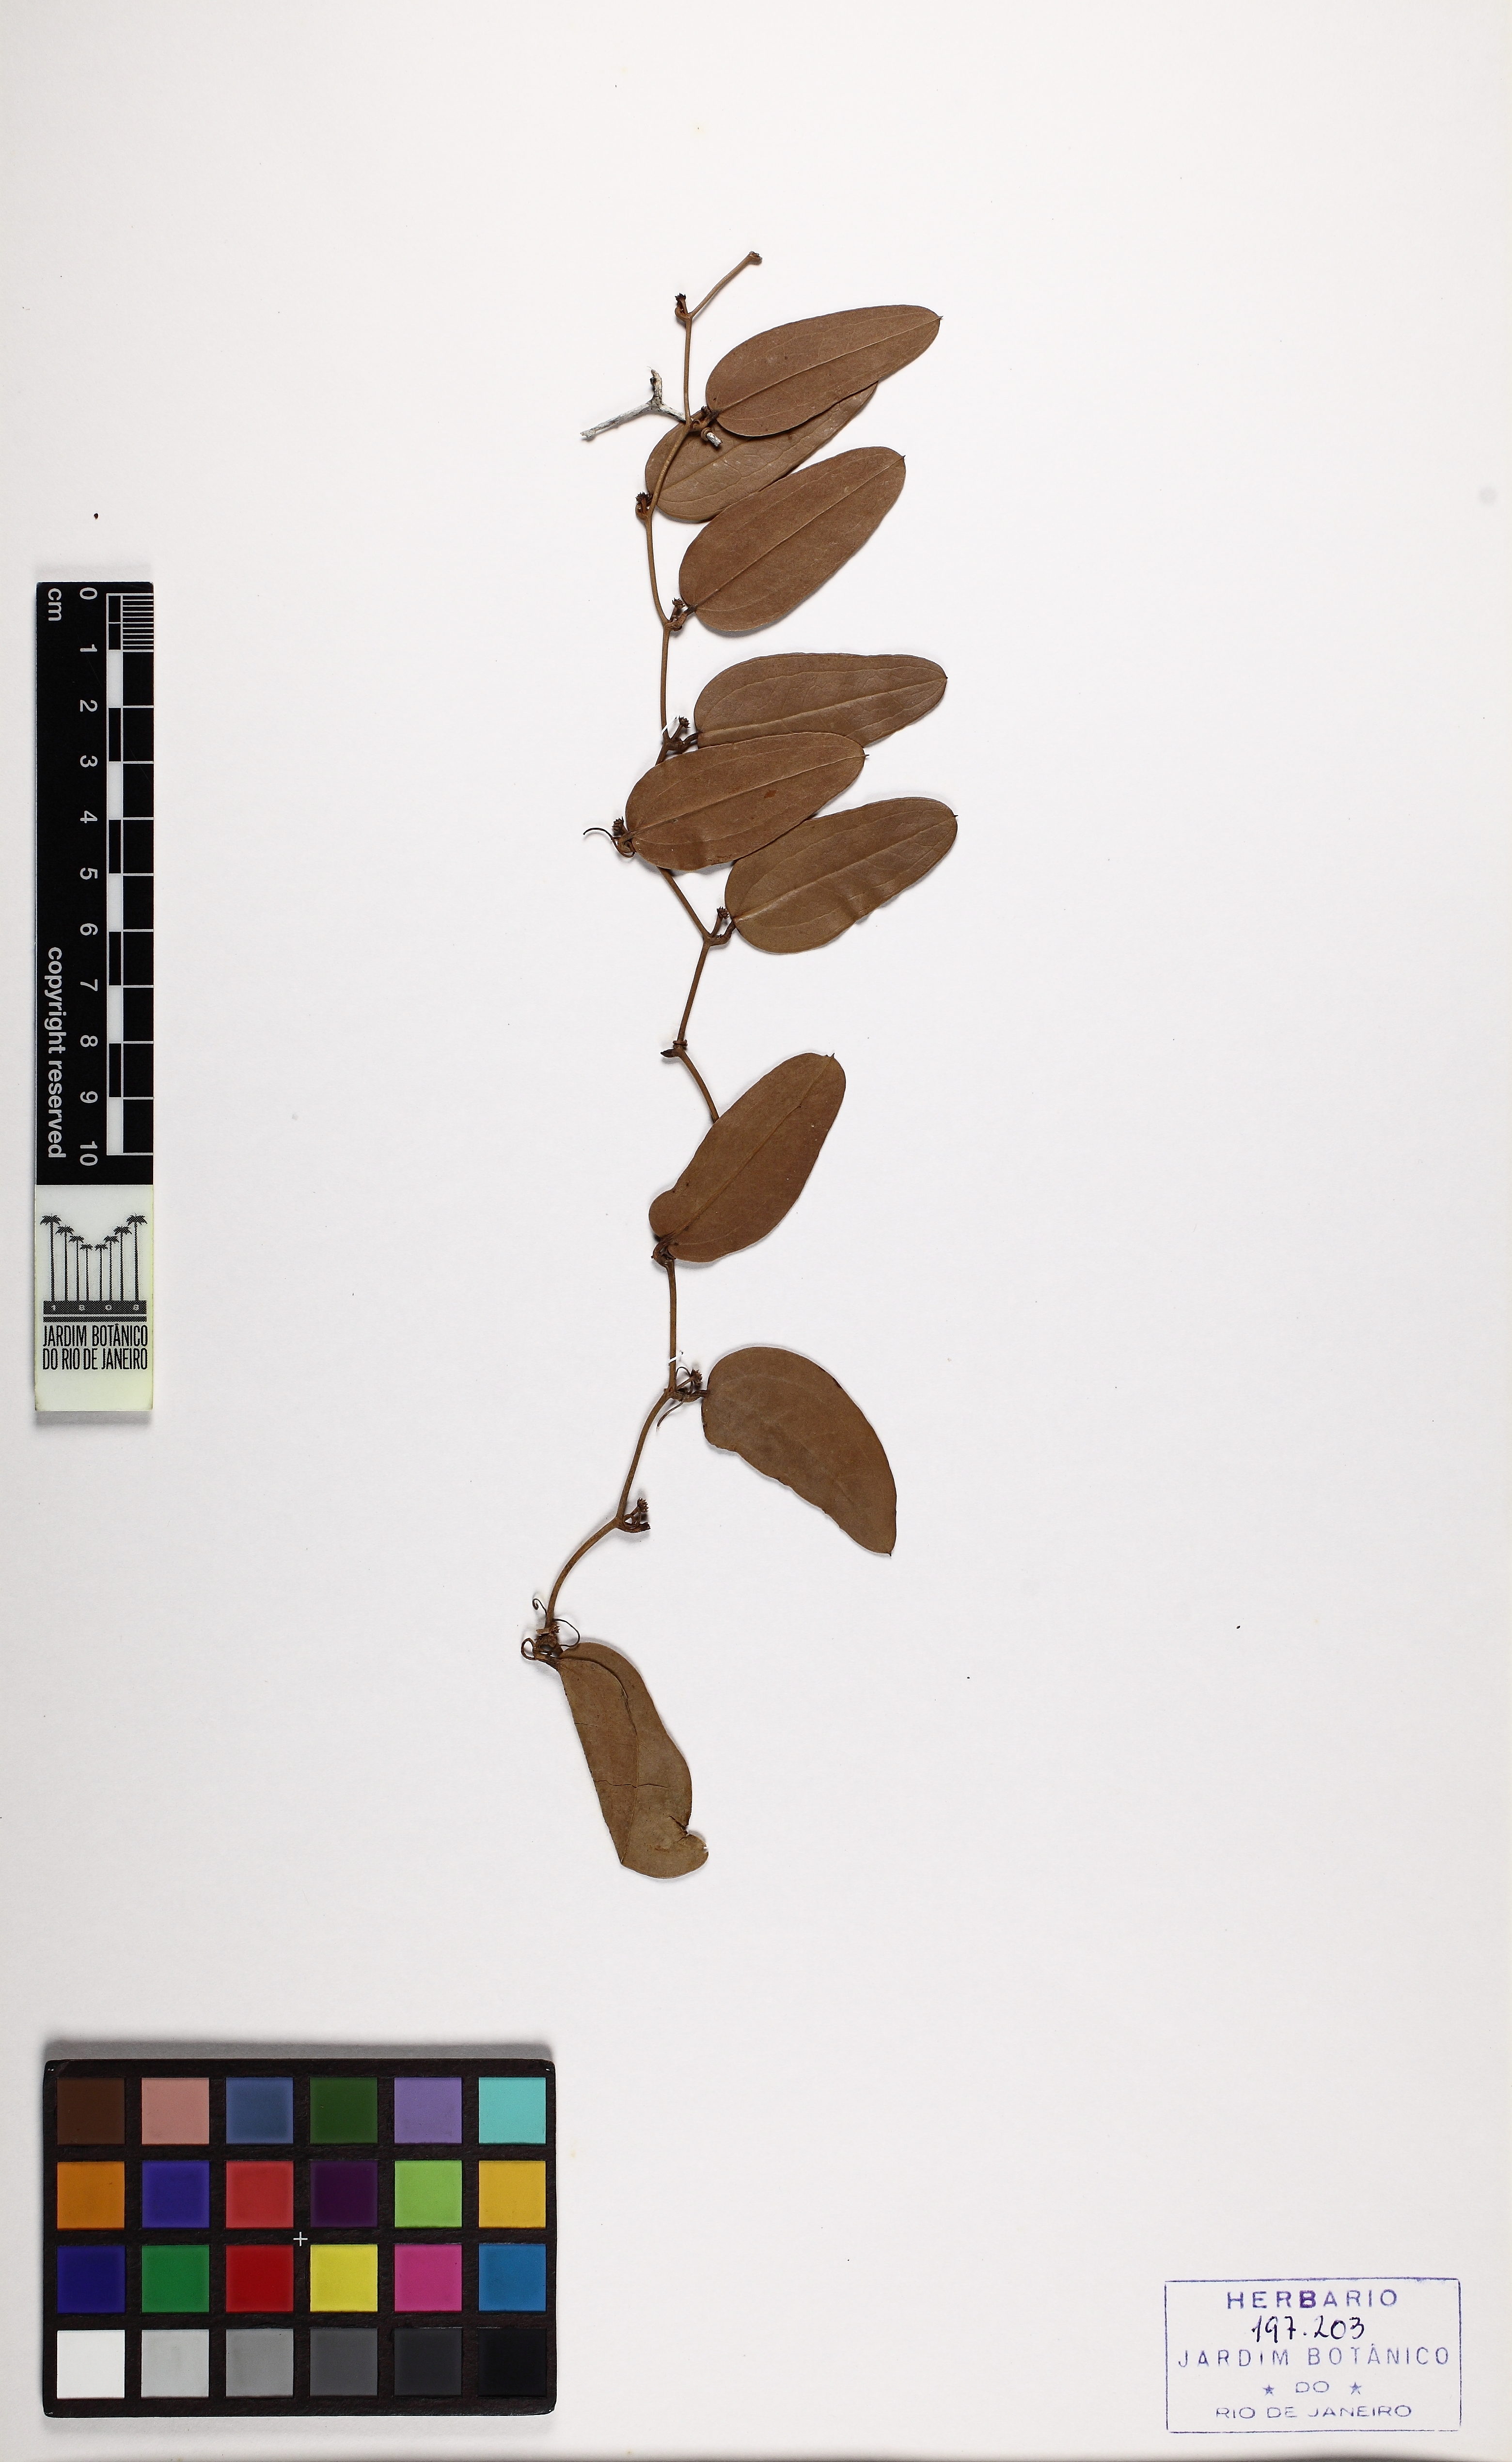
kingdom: Plantae
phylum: Tracheophyta
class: Liliopsida
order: Liliales
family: Smilacaceae
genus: Smilax
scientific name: Smilax elastica
